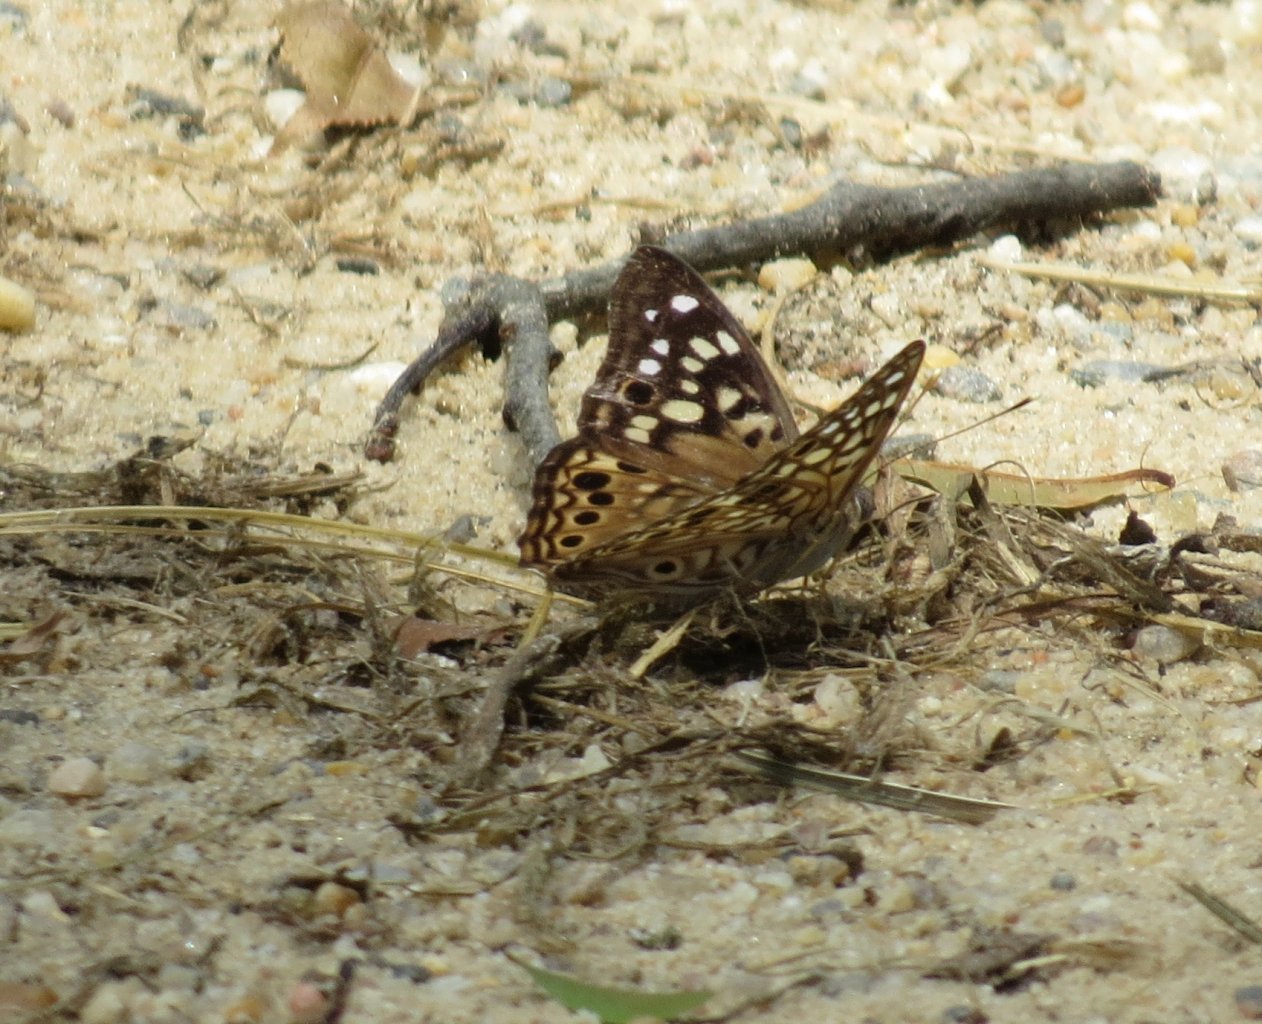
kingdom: Animalia
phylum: Arthropoda
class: Insecta
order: Lepidoptera
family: Nymphalidae
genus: Asterocampa
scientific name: Asterocampa celtis
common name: Hackberry Emperor
